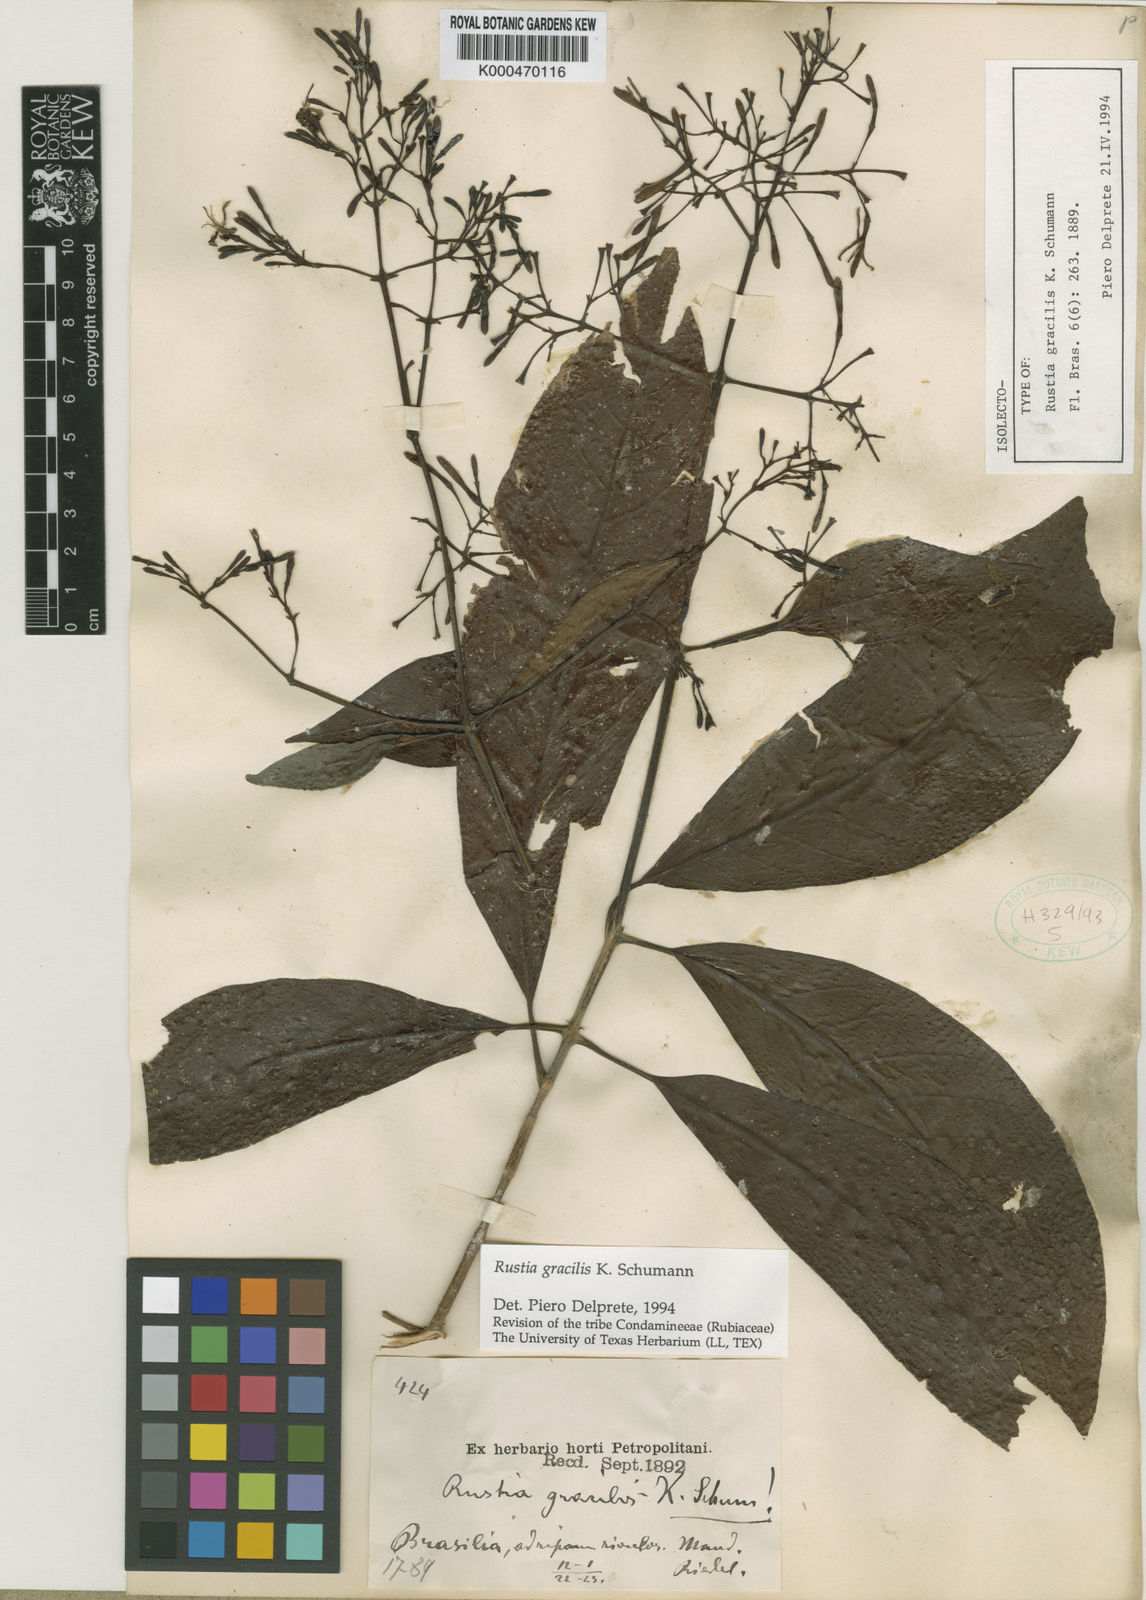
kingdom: Plantae
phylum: Tracheophyta
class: Magnoliopsida
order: Gentianales
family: Rubiaceae
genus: Rustia
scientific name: Rustia gracilis
